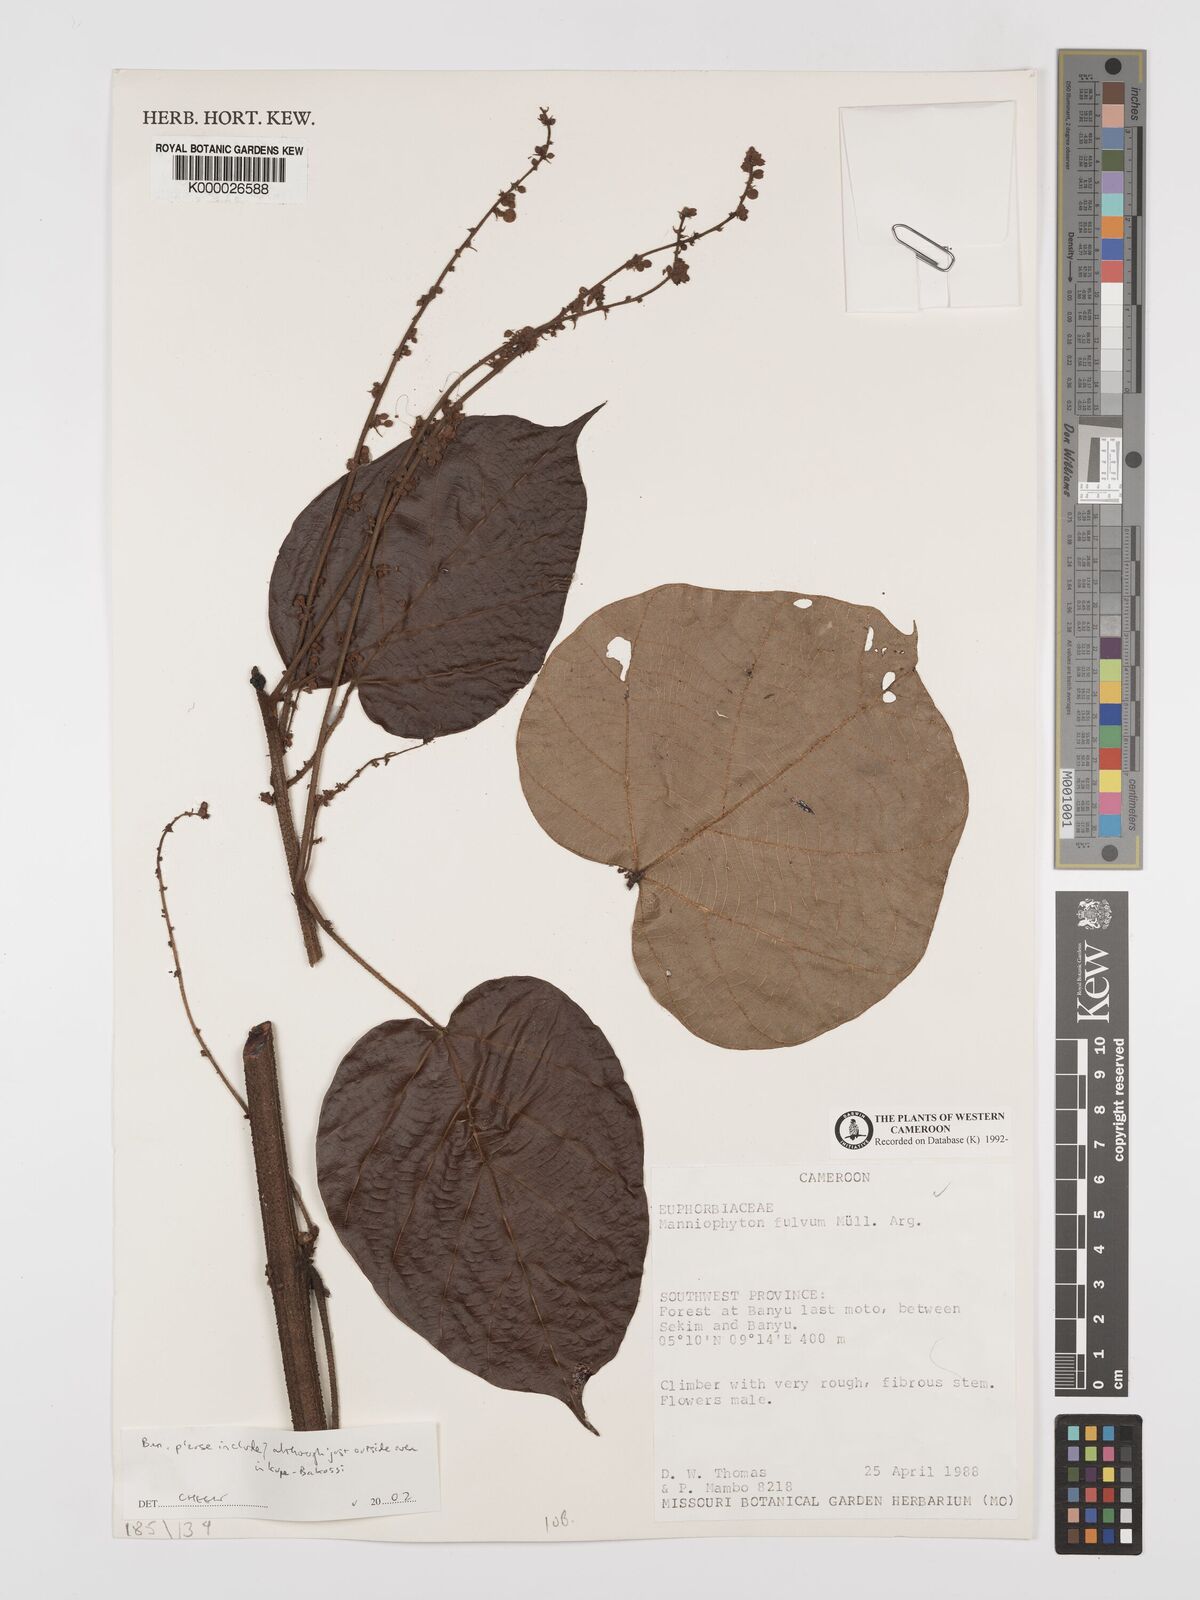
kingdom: Plantae
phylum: Tracheophyta
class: Magnoliopsida
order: Malpighiales
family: Euphorbiaceae
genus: Manniophyton
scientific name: Manniophyton
